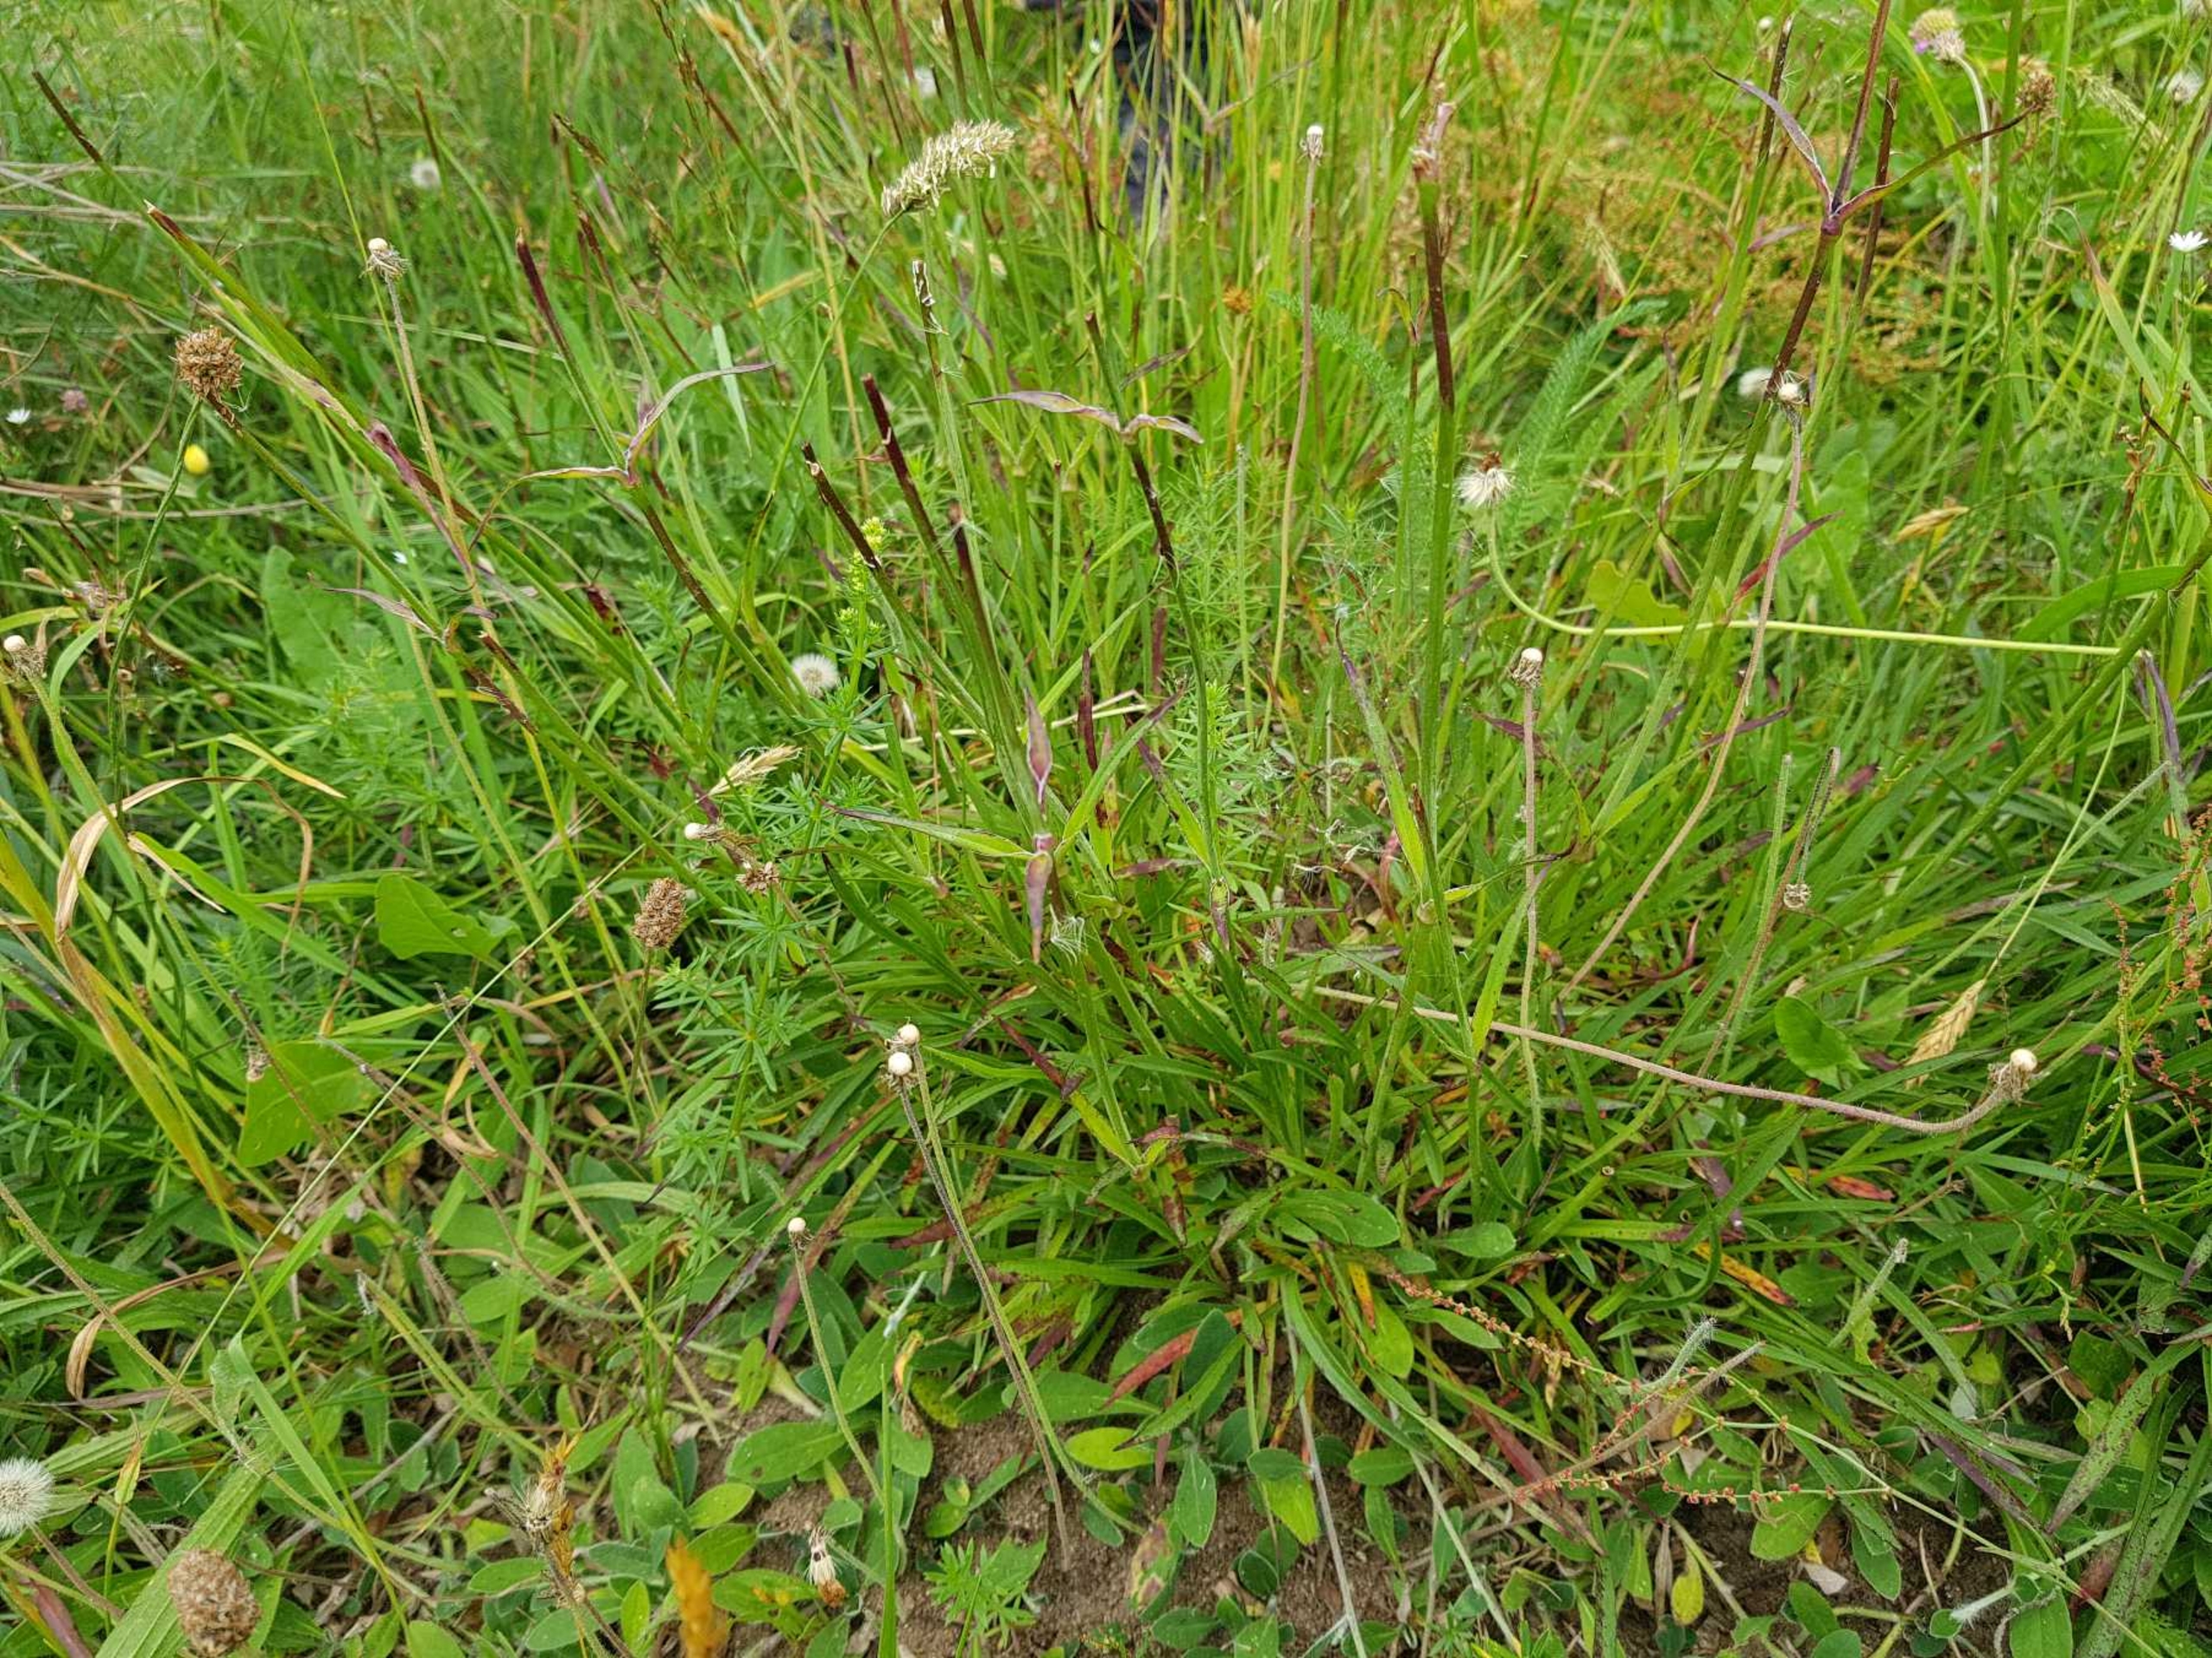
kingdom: Plantae
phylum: Tracheophyta
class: Magnoliopsida
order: Caryophyllales
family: Caryophyllaceae
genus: Viscaria
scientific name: Viscaria vulgaris
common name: Tjærenellike
